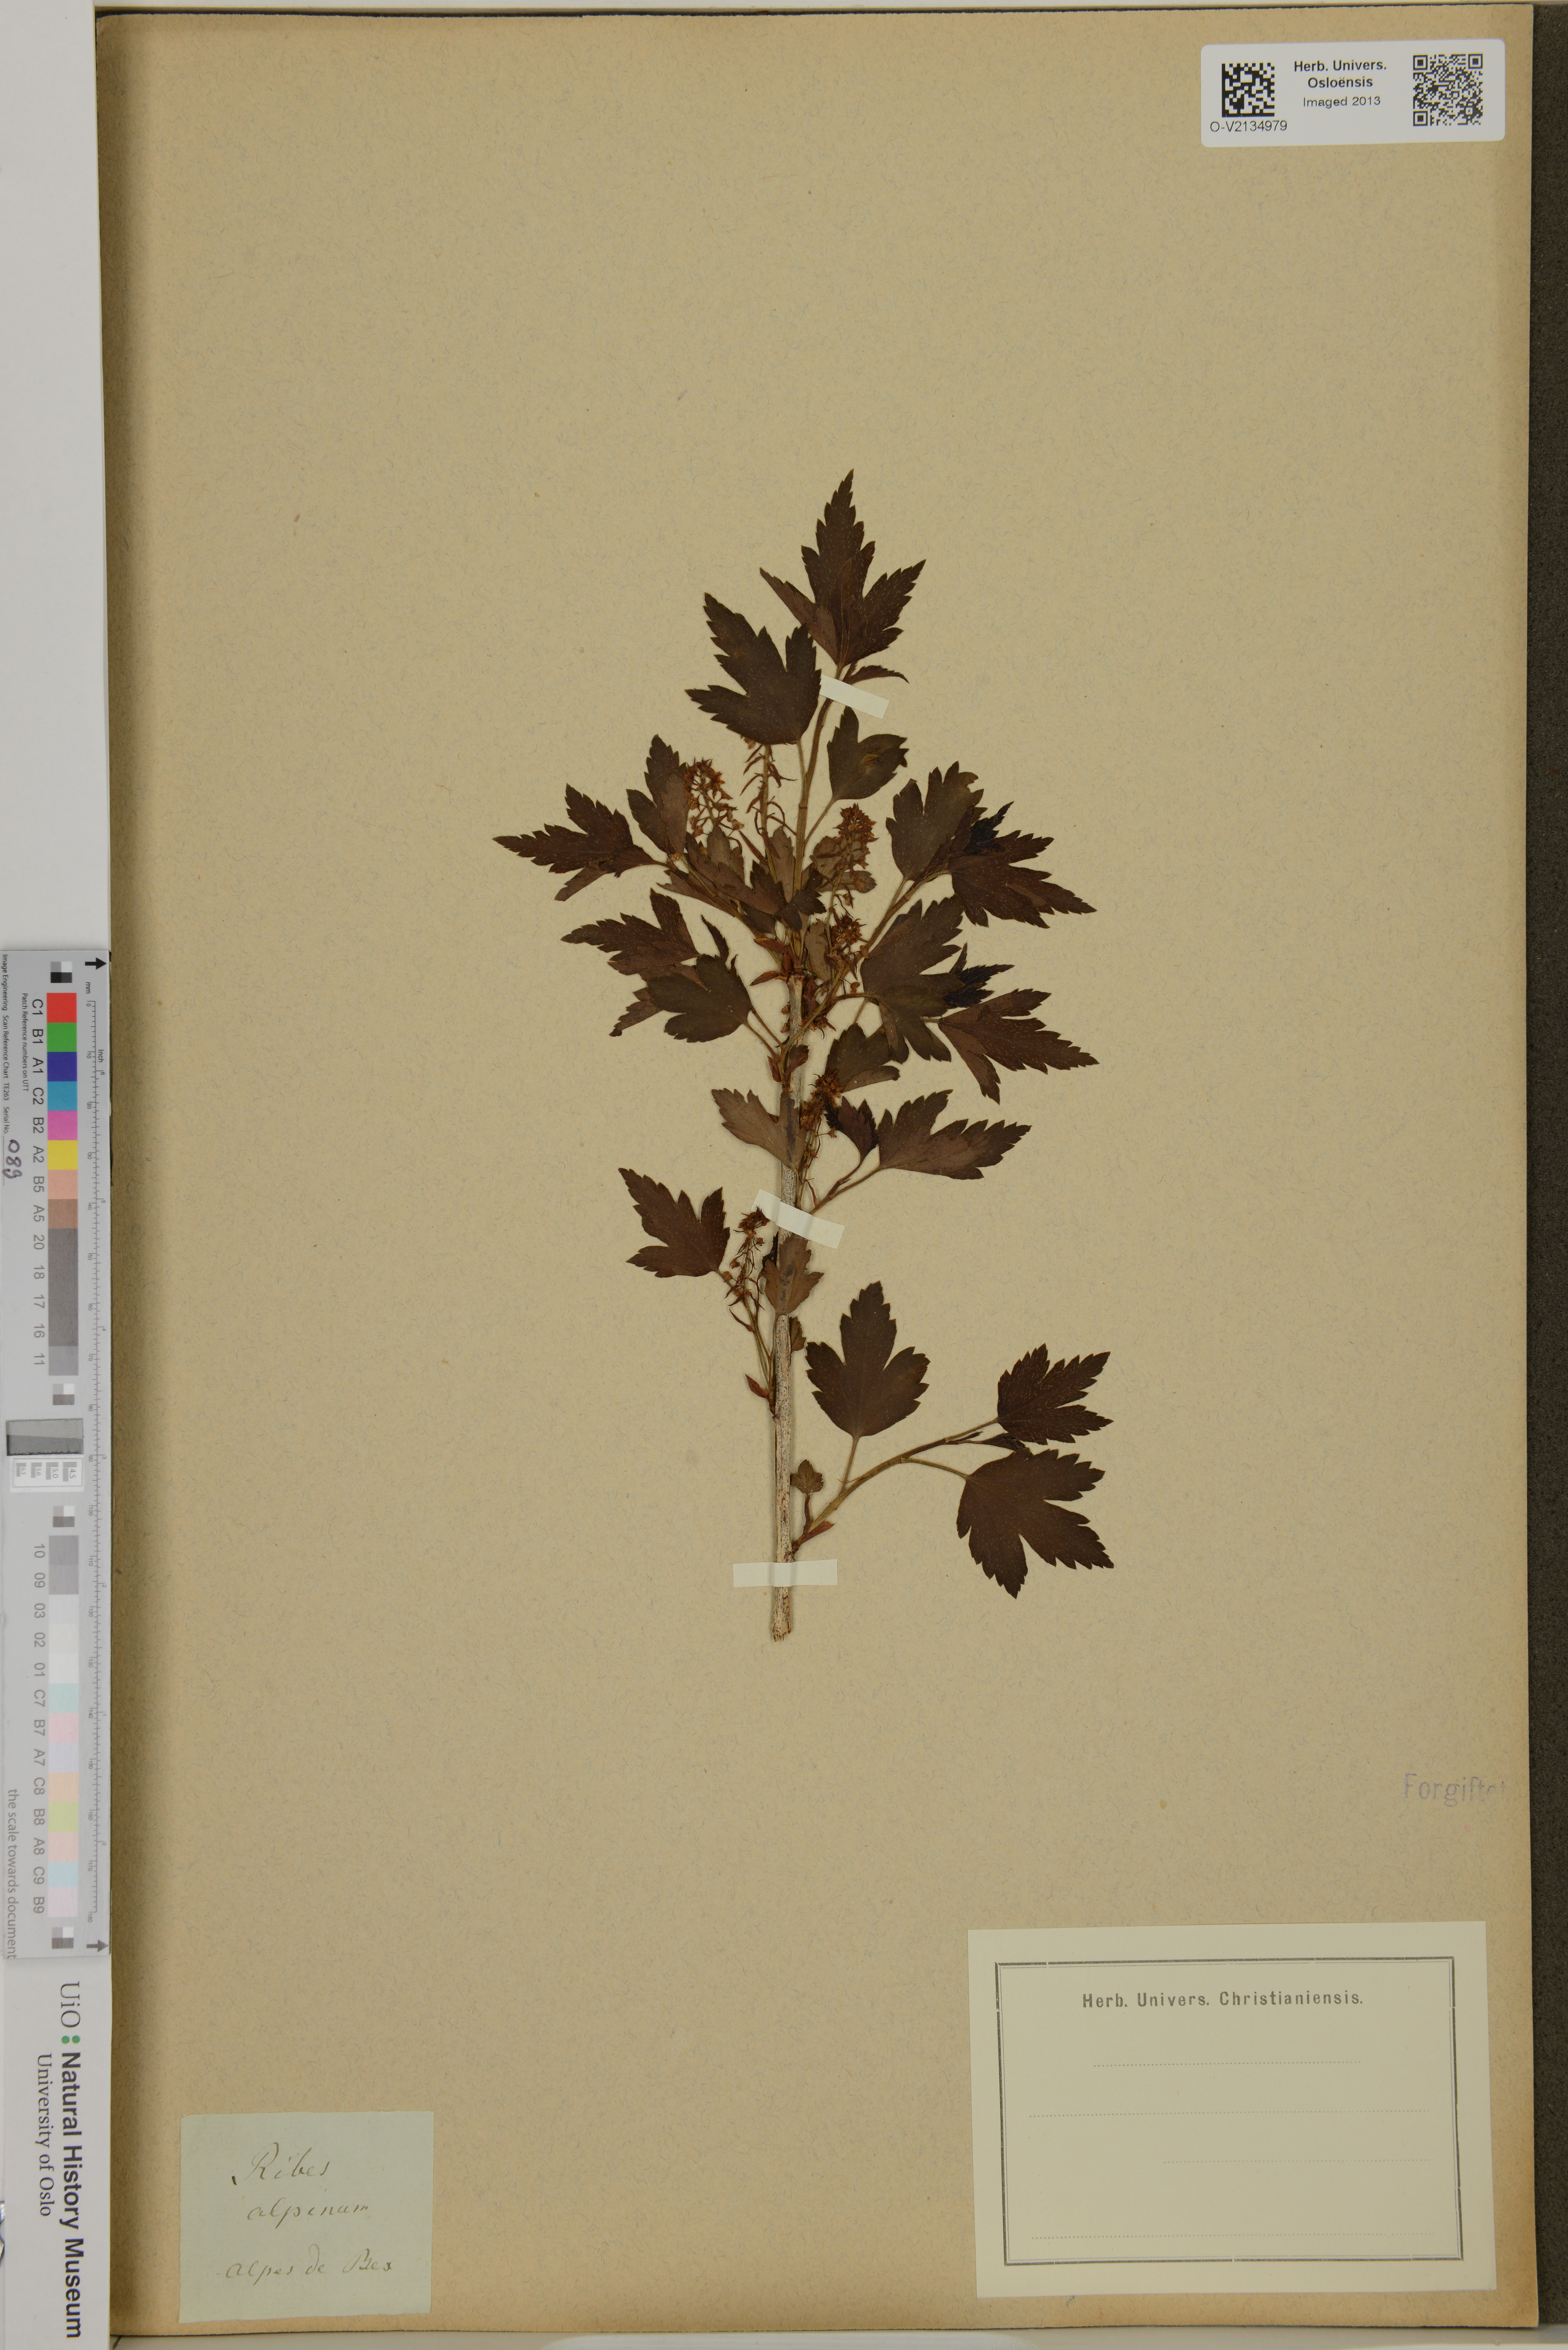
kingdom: Plantae
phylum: Tracheophyta
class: Magnoliopsida
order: Saxifragales
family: Grossulariaceae
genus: Ribes
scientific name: Ribes alpinum
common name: Alpine currant
